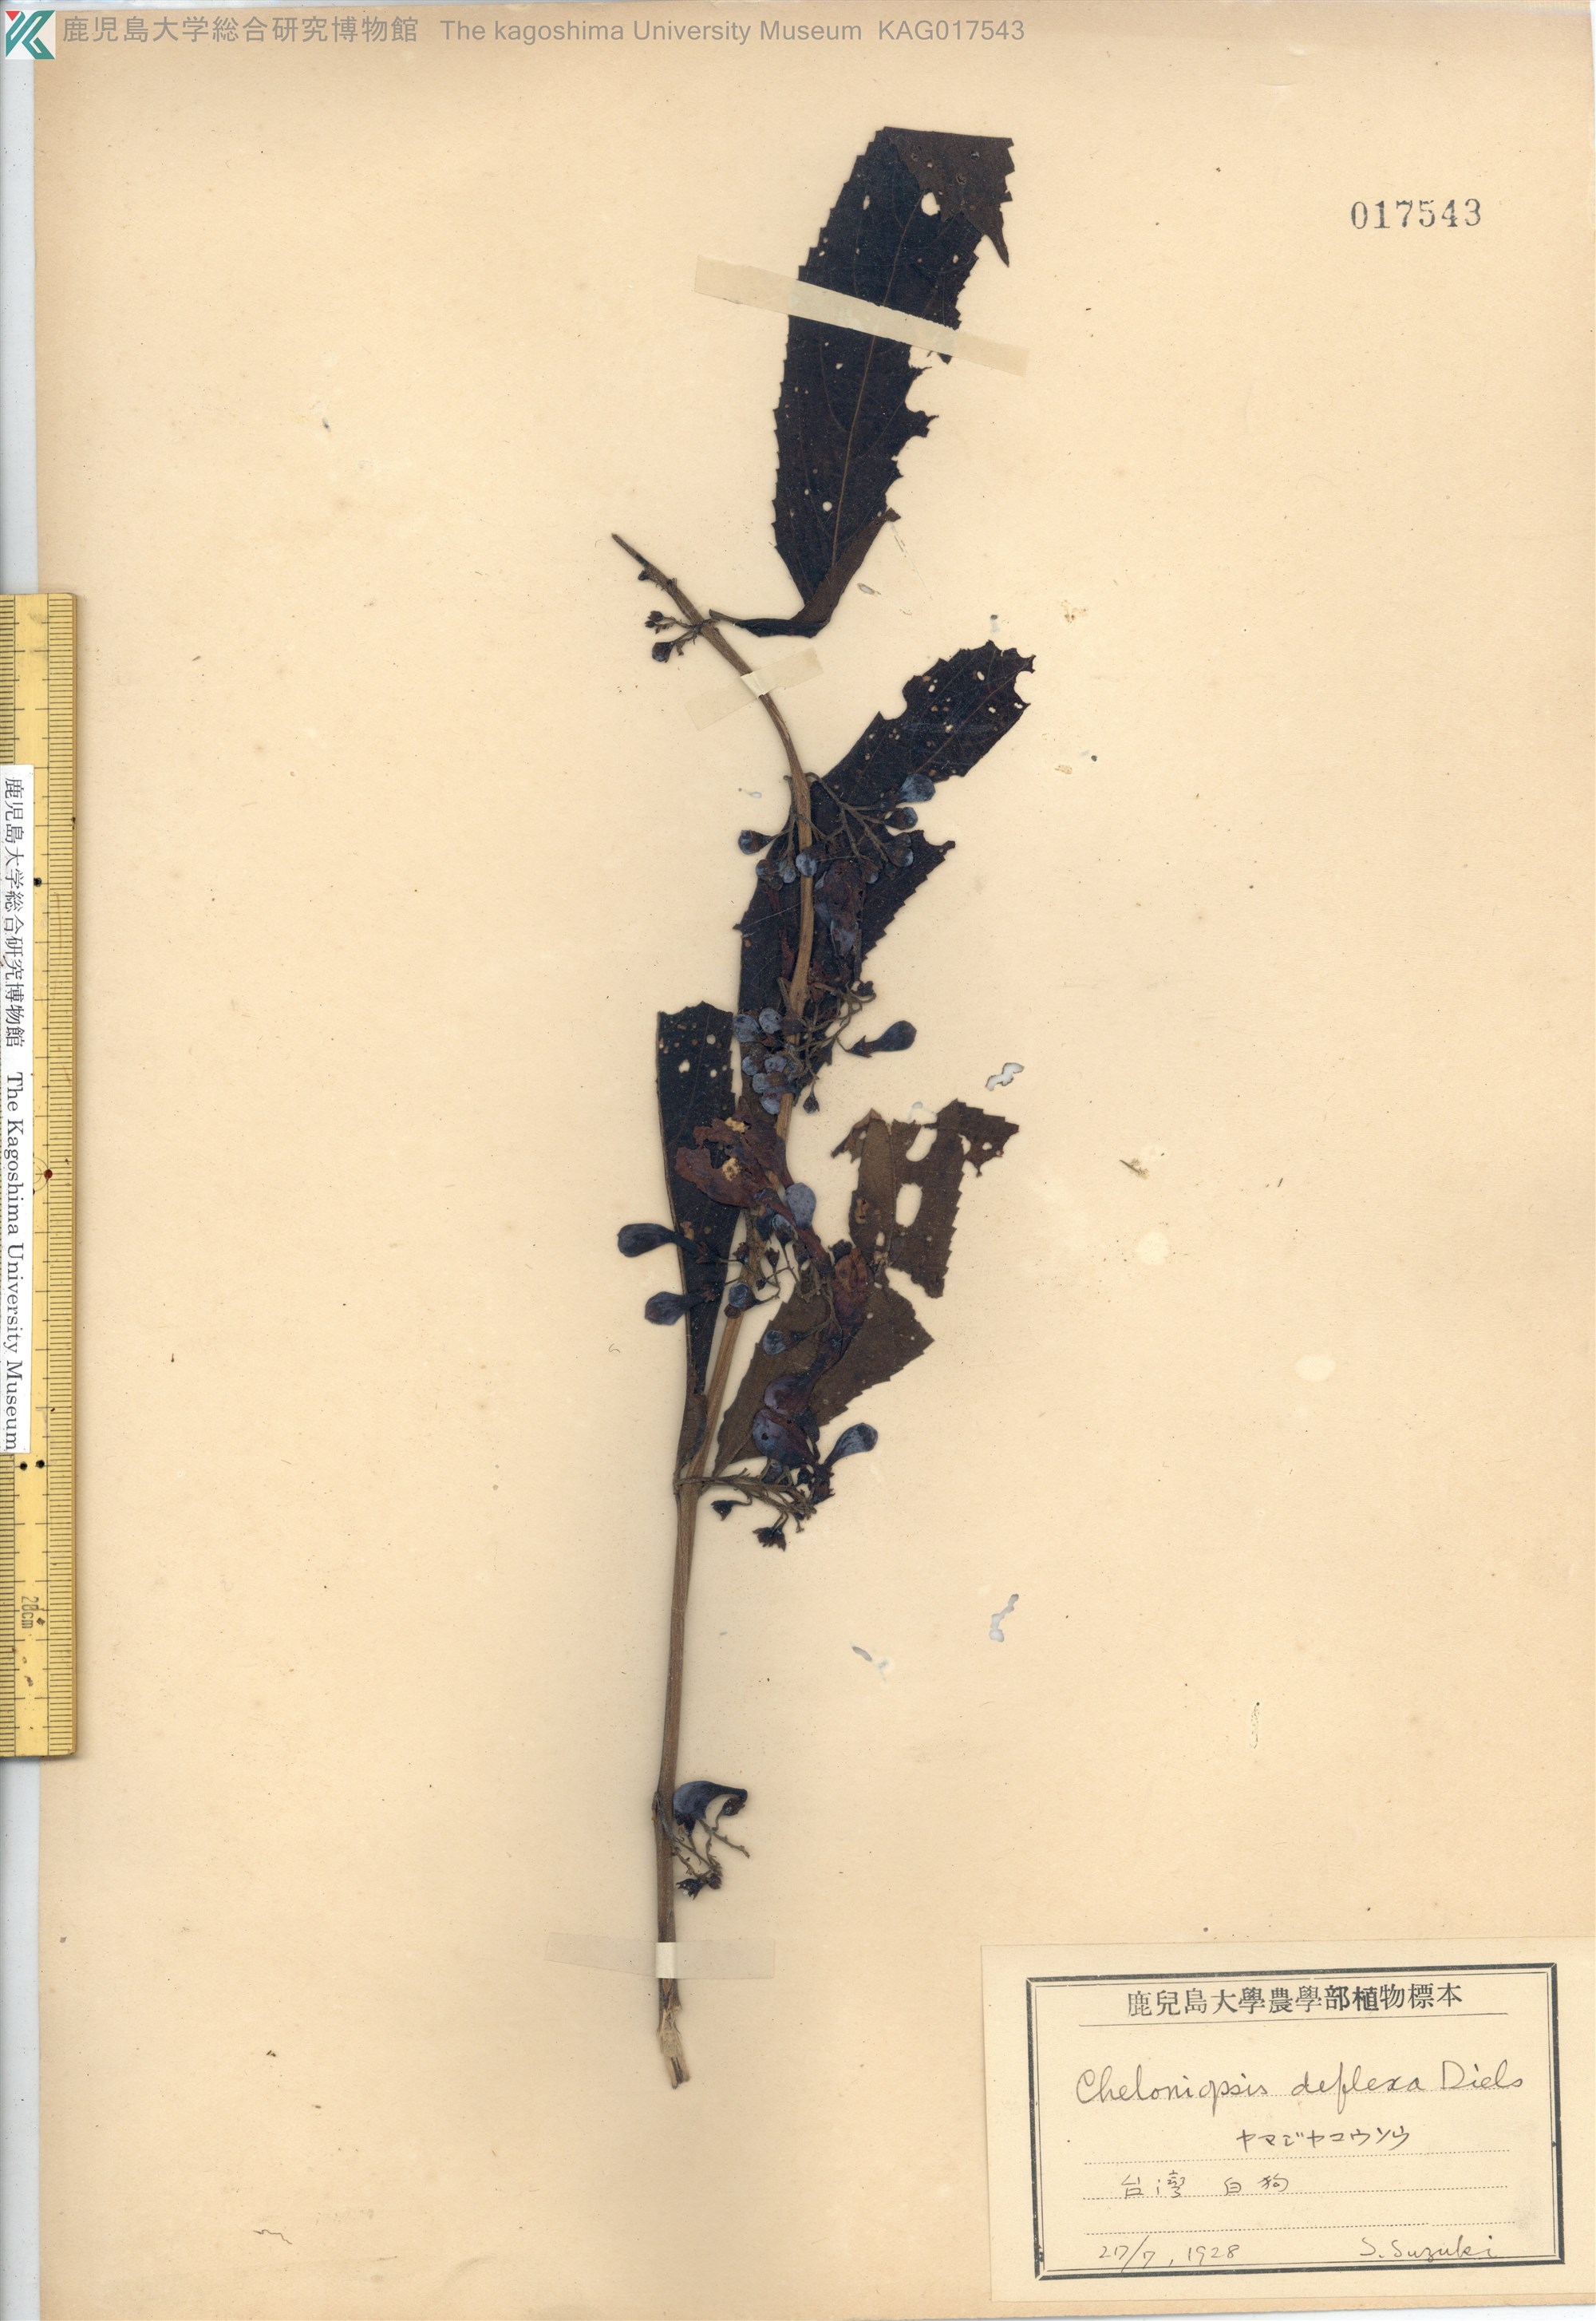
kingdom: Plantae
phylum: Tracheophyta
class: Magnoliopsida
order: Lamiales
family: Lamiaceae
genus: Chelonopsis
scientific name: Chelonopsis deflexa
